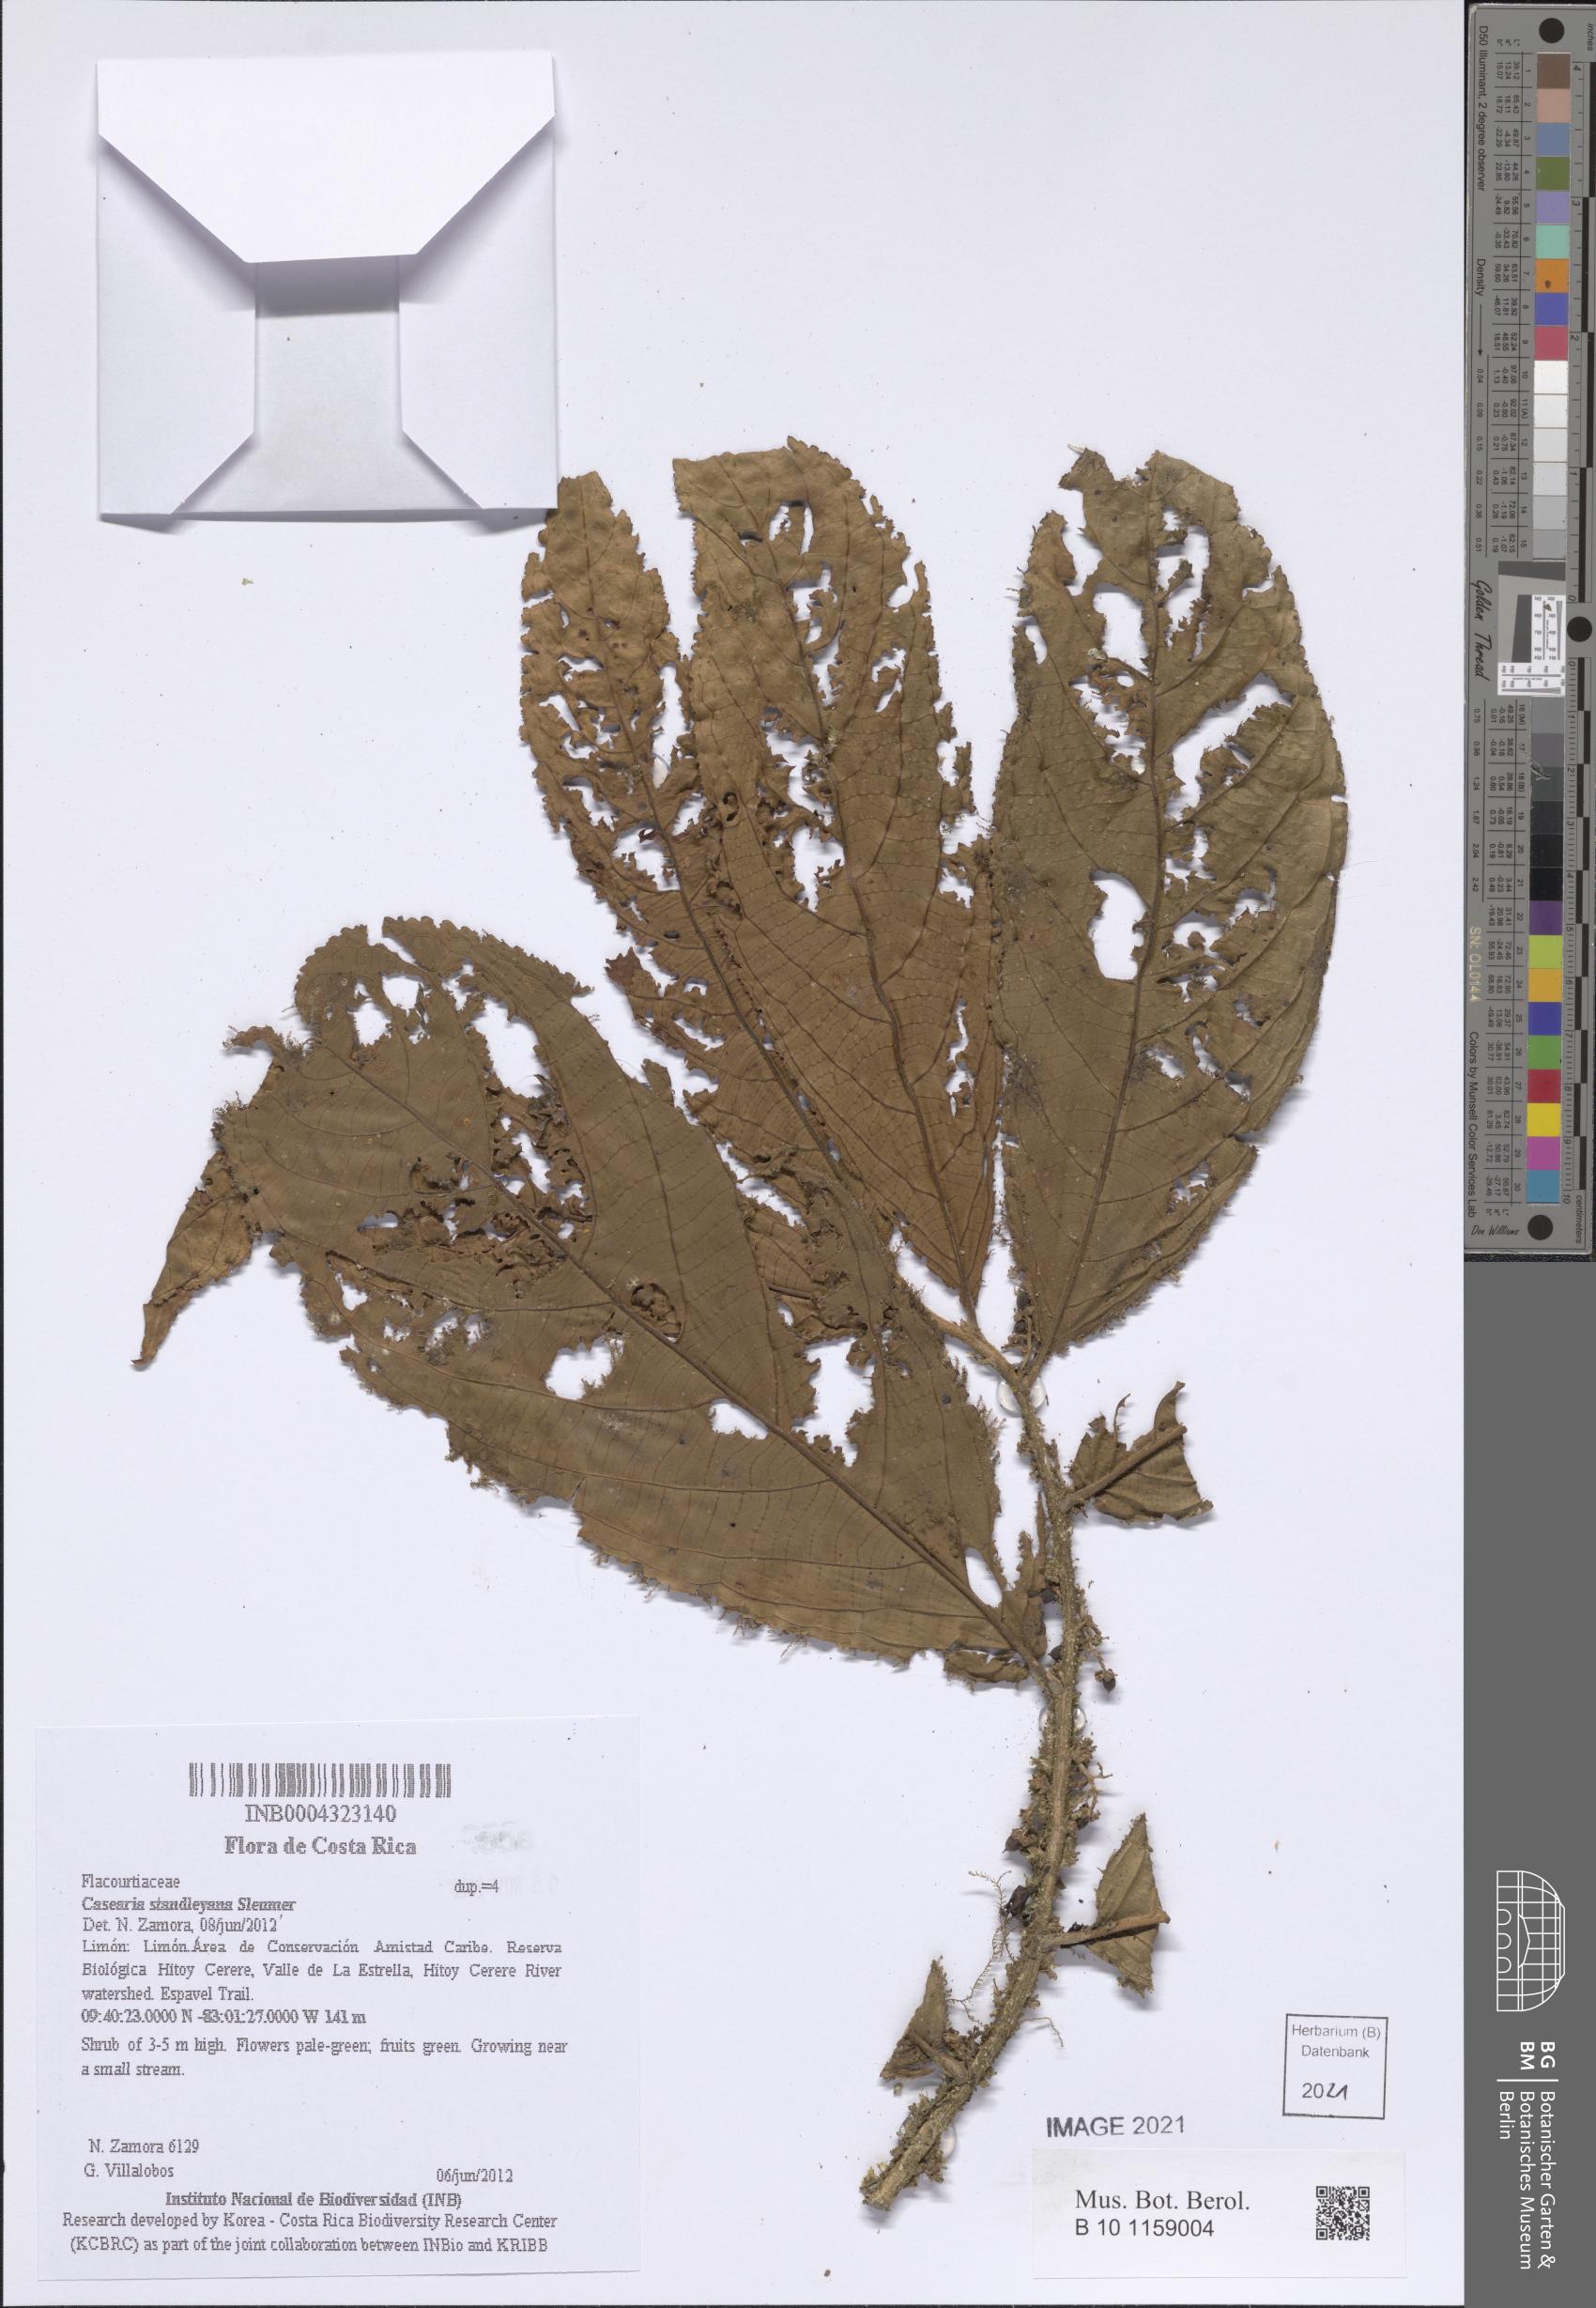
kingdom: Plantae
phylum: Tracheophyta
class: Magnoliopsida
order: Malpighiales
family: Salicaceae
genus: Casearia
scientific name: Casearia
